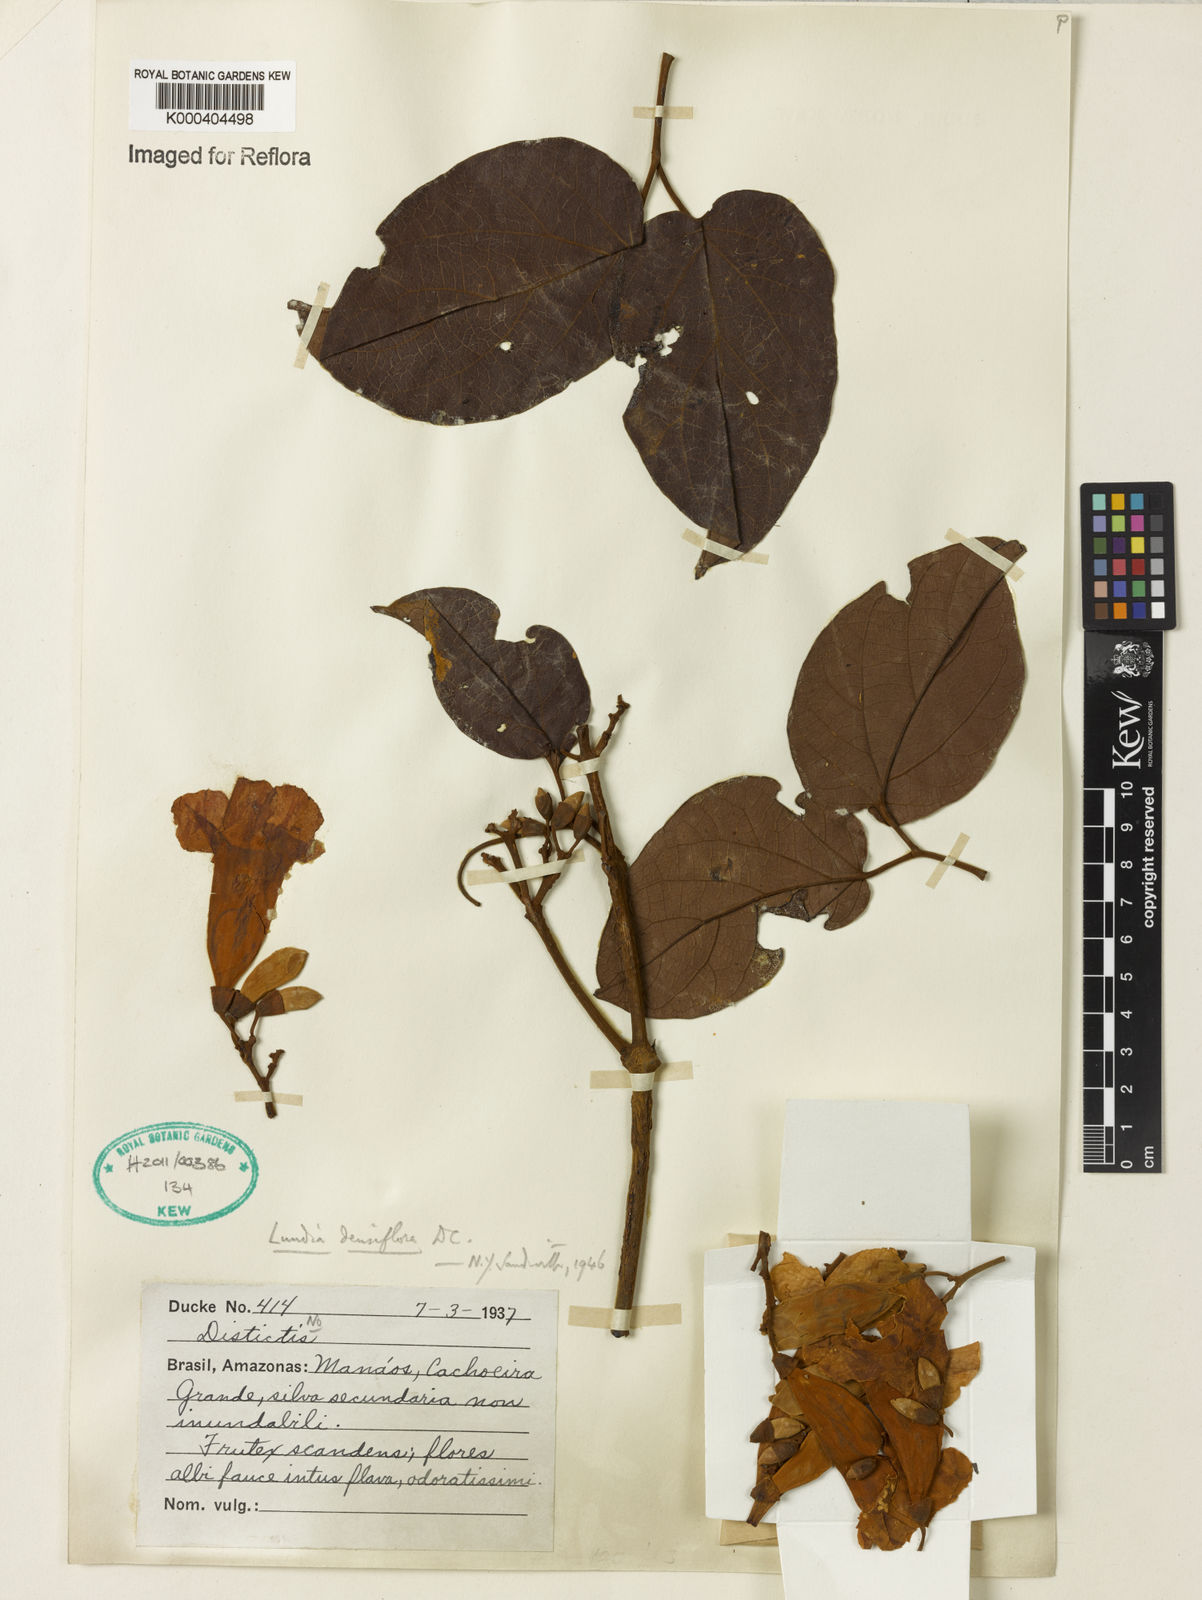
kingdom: Plantae
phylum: Tracheophyta
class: Magnoliopsida
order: Lamiales
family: Bignoniaceae
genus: Lundia
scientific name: Lundia densiflora
